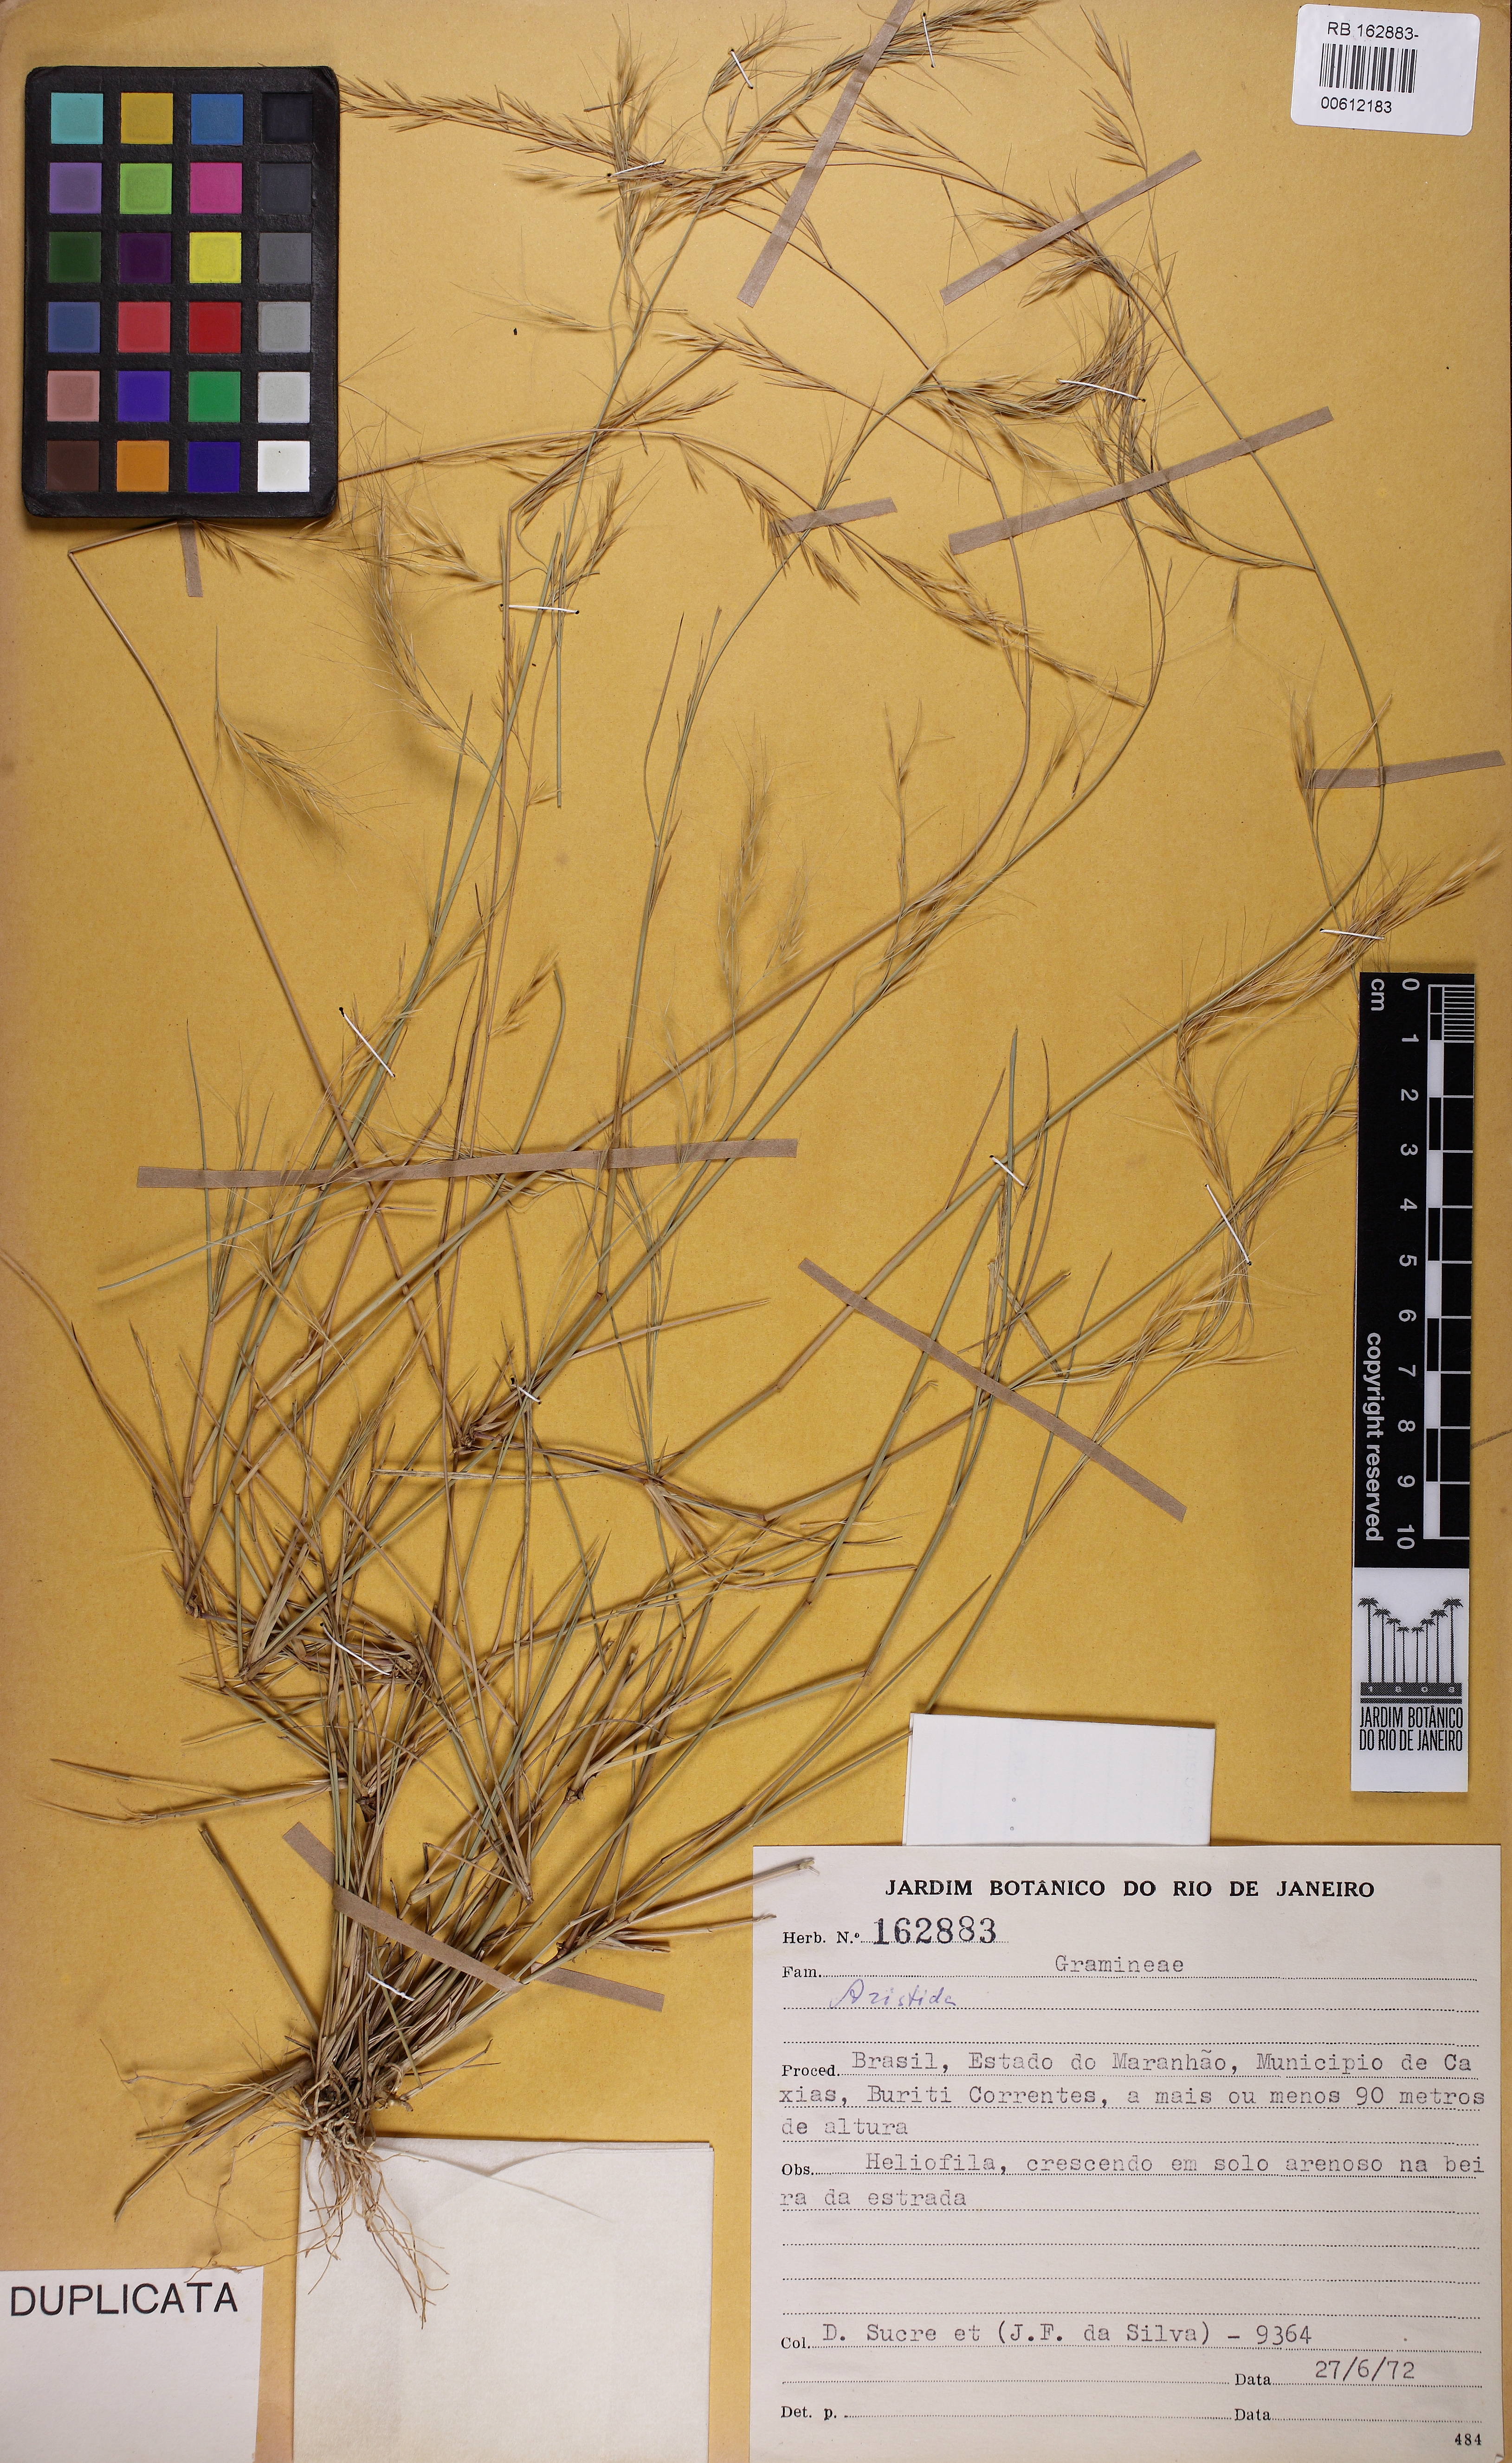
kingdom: Plantae
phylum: Tracheophyta
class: Liliopsida
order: Poales
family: Poaceae
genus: Aristida
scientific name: Aristida
